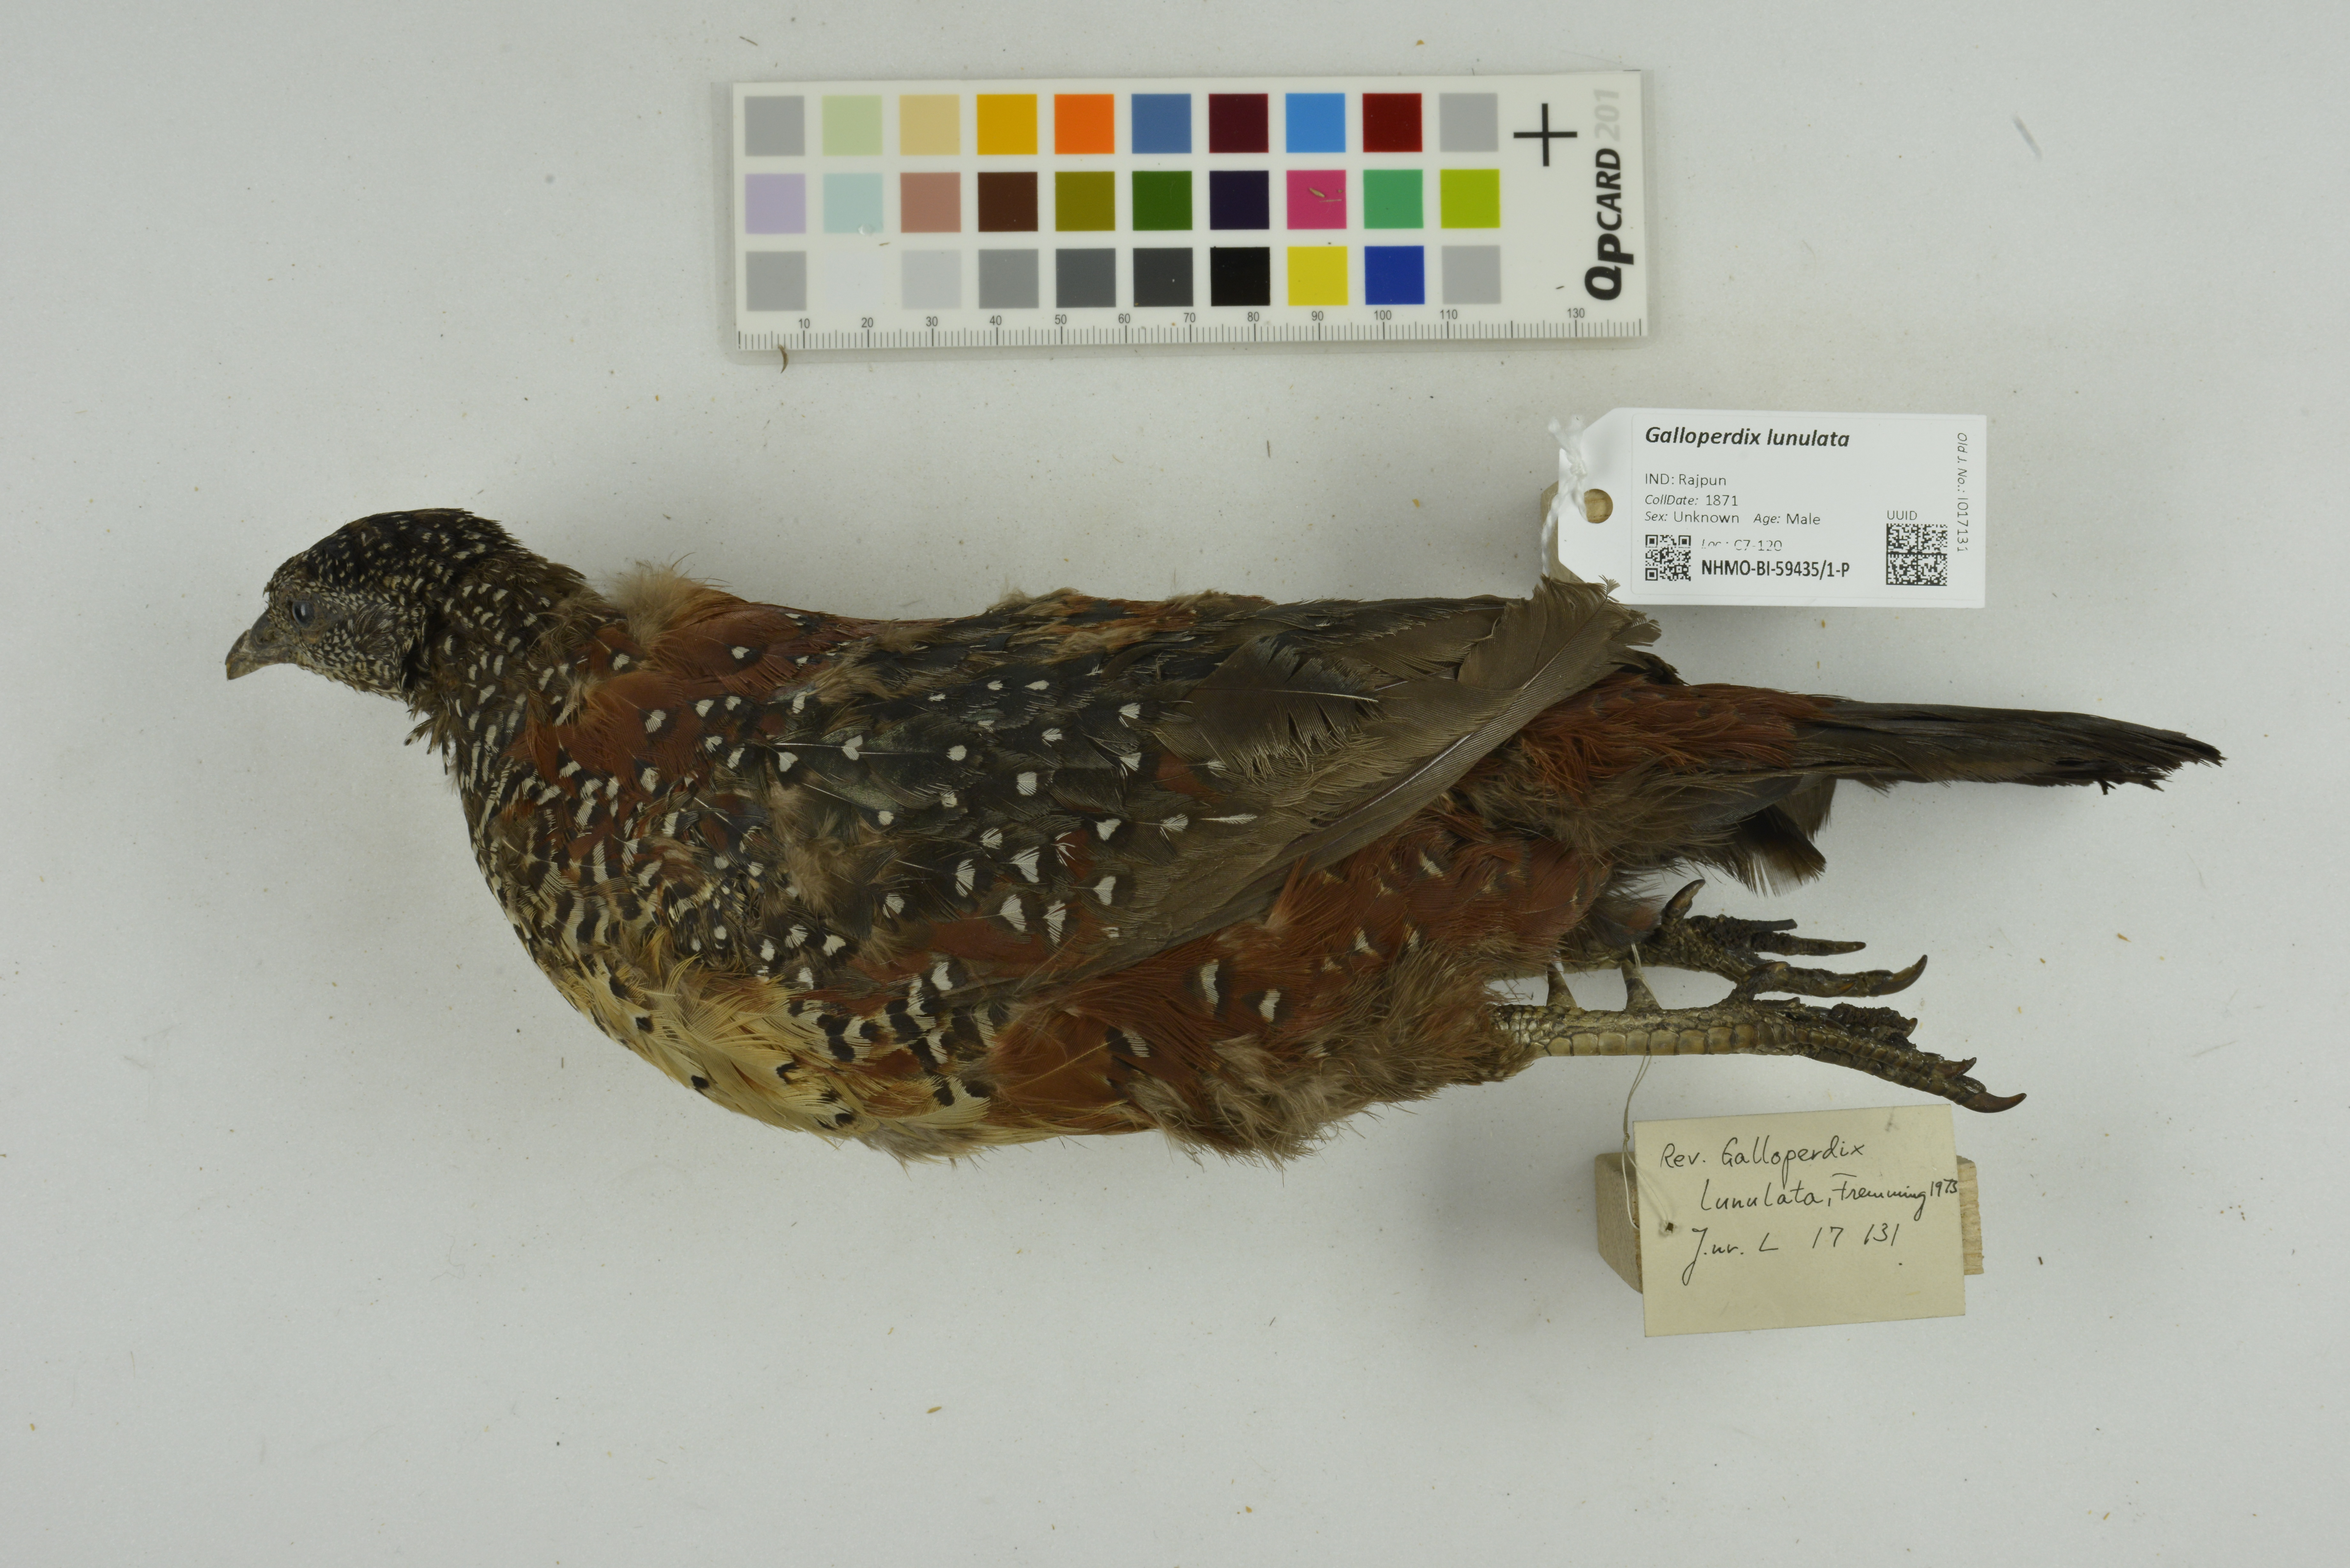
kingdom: Animalia
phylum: Chordata
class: Aves
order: Galliformes
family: Phasianidae
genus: Galloperdix
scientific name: Galloperdix lunulata
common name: Painted spurfowl
